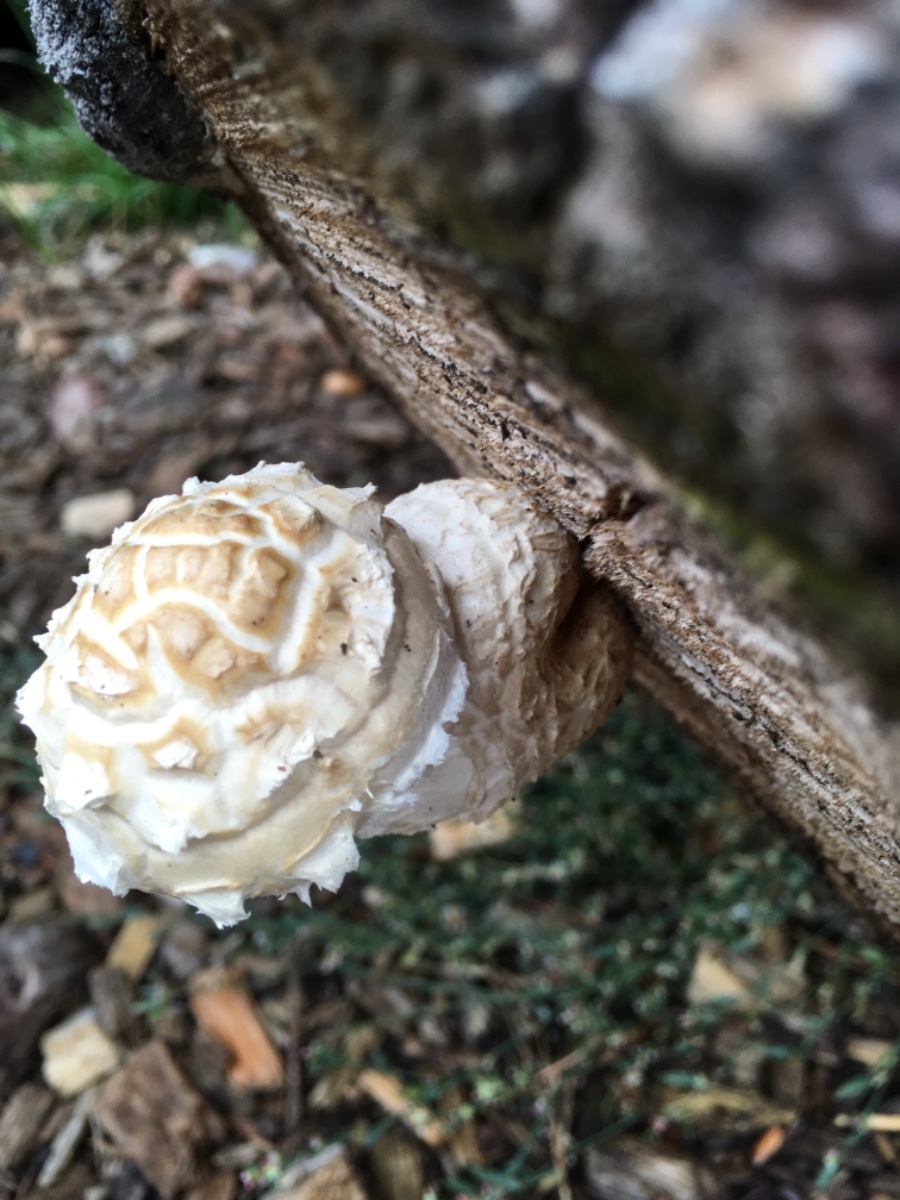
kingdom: Fungi
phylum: Basidiomycota
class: Agaricomycetes
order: Agaricales
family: Strophariaceae
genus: Pholiota
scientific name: Pholiota populnea
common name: poppel-kæmpeskælhat
